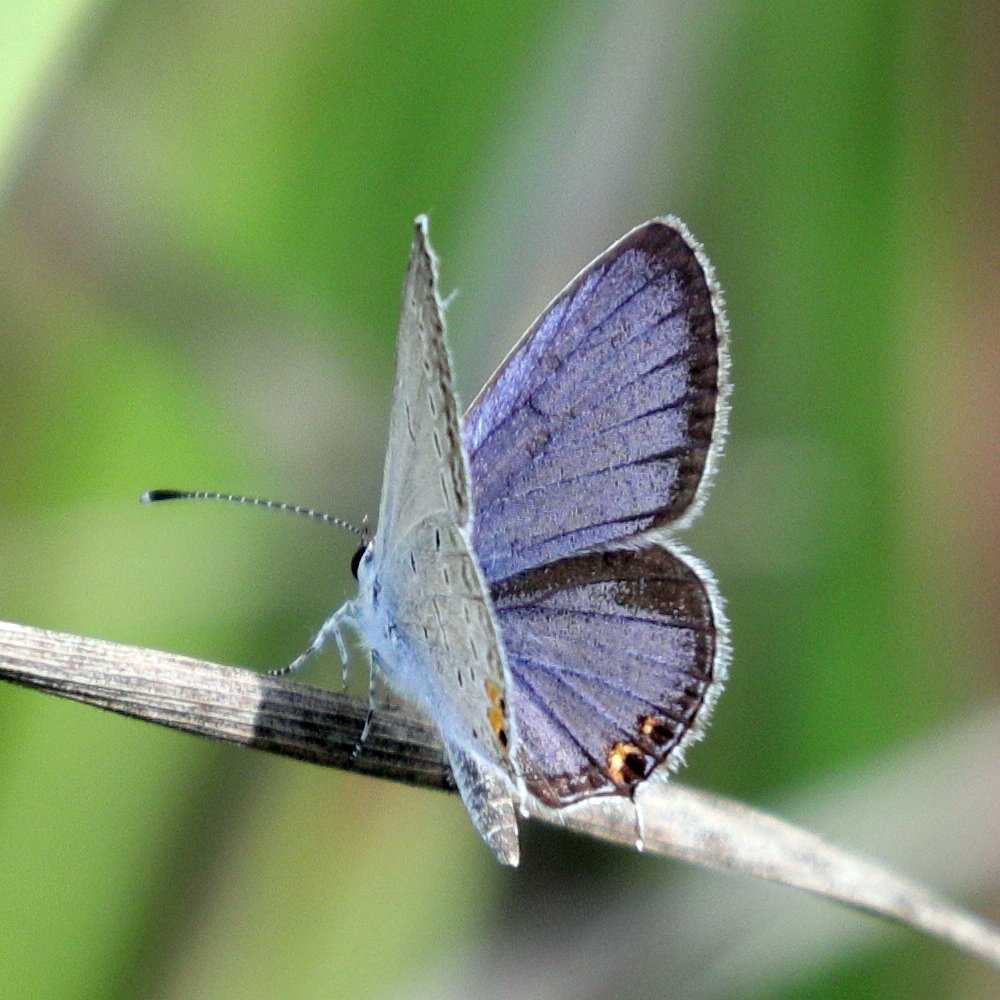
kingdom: Animalia
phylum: Arthropoda
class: Insecta
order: Lepidoptera
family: Lycaenidae
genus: Elkalyce
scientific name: Elkalyce comyntas
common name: Eastern Tailed-Blue
